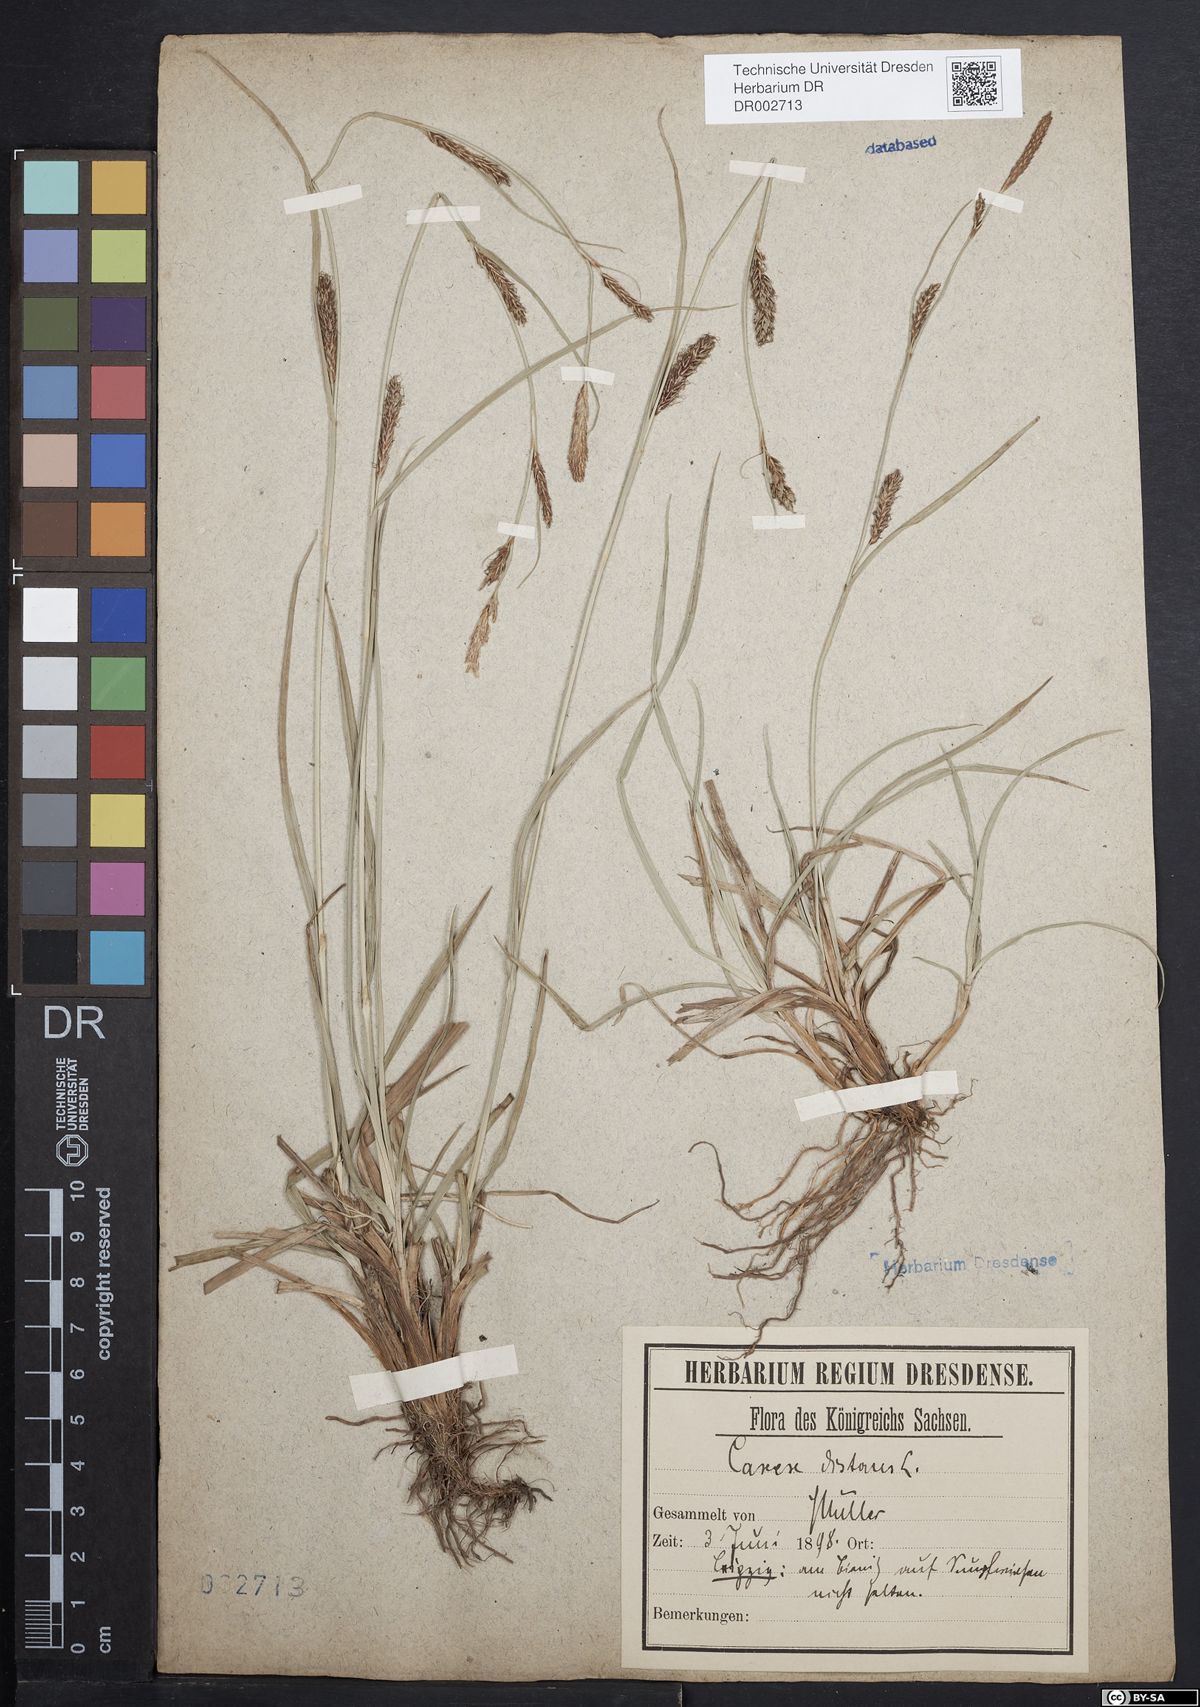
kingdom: Plantae
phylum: Tracheophyta
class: Liliopsida
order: Poales
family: Cyperaceae
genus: Carex
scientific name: Carex distans
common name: Distant sedge
